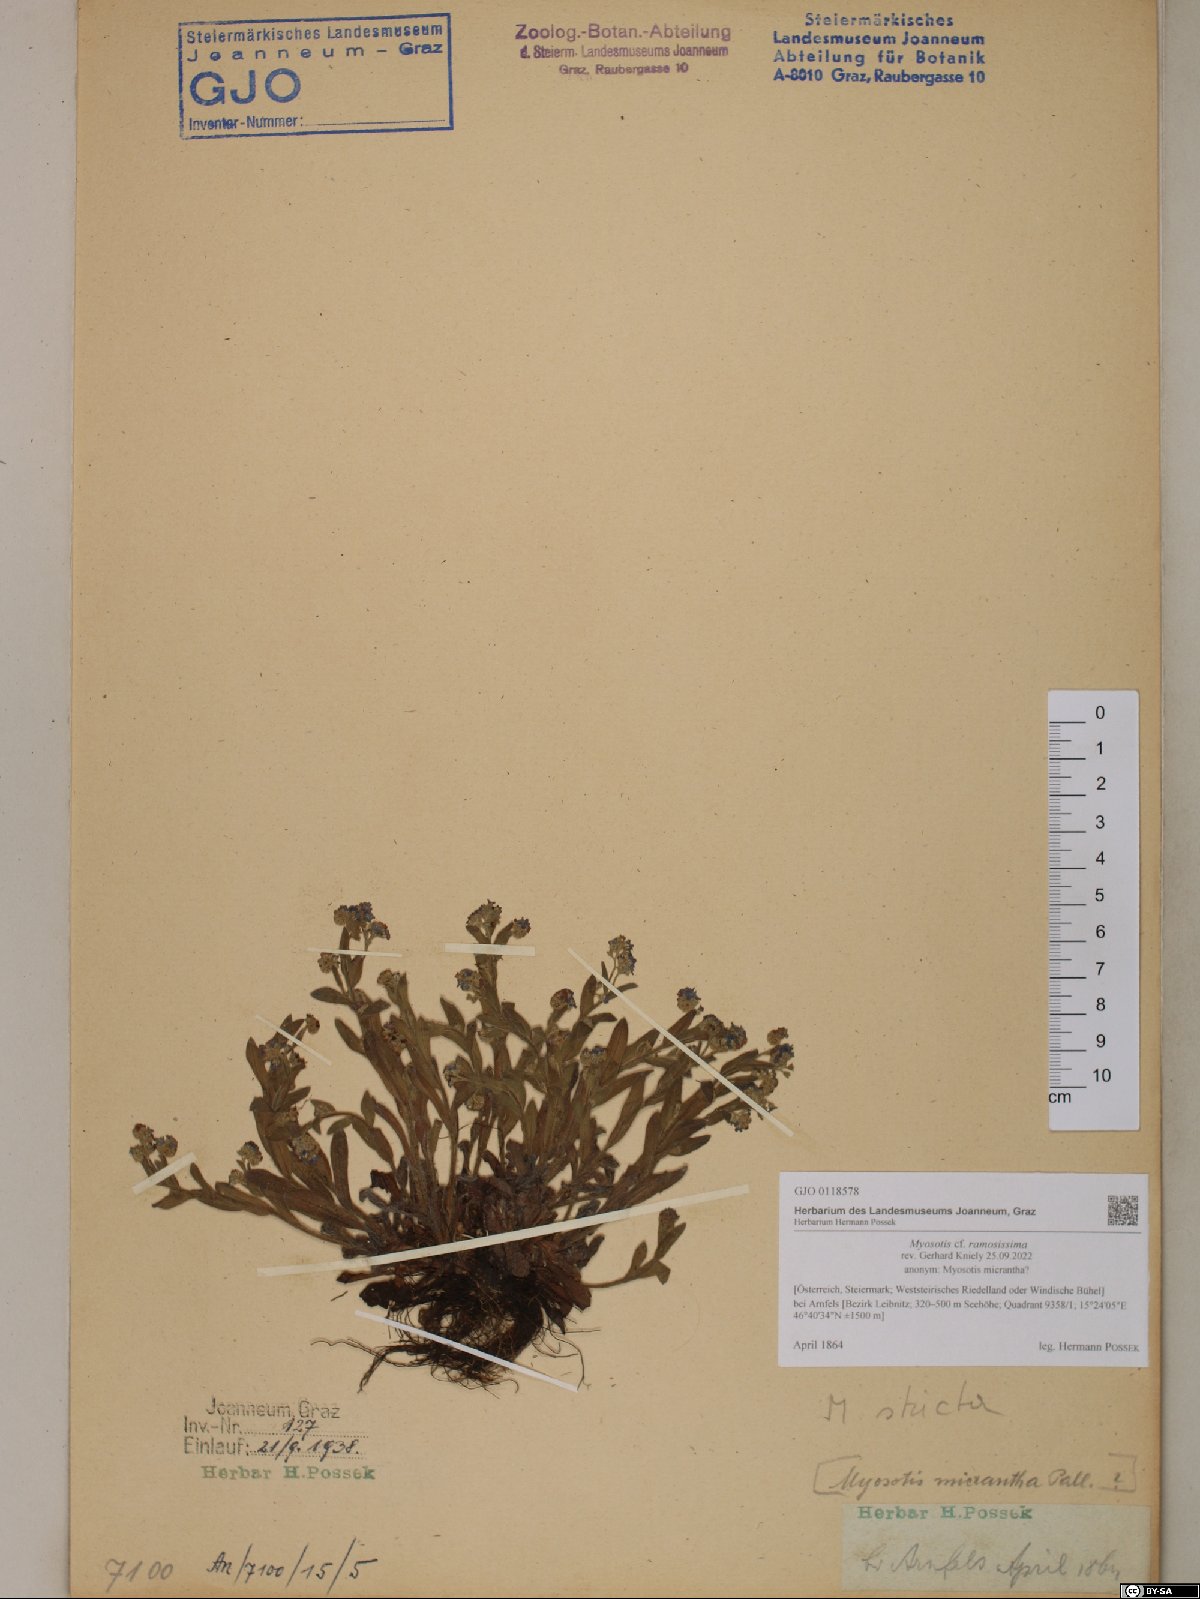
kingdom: Plantae
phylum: Tracheophyta
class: Magnoliopsida
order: Boraginales
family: Boraginaceae
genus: Myosotis
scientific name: Myosotis ramosissima
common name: Early forget-me-not
